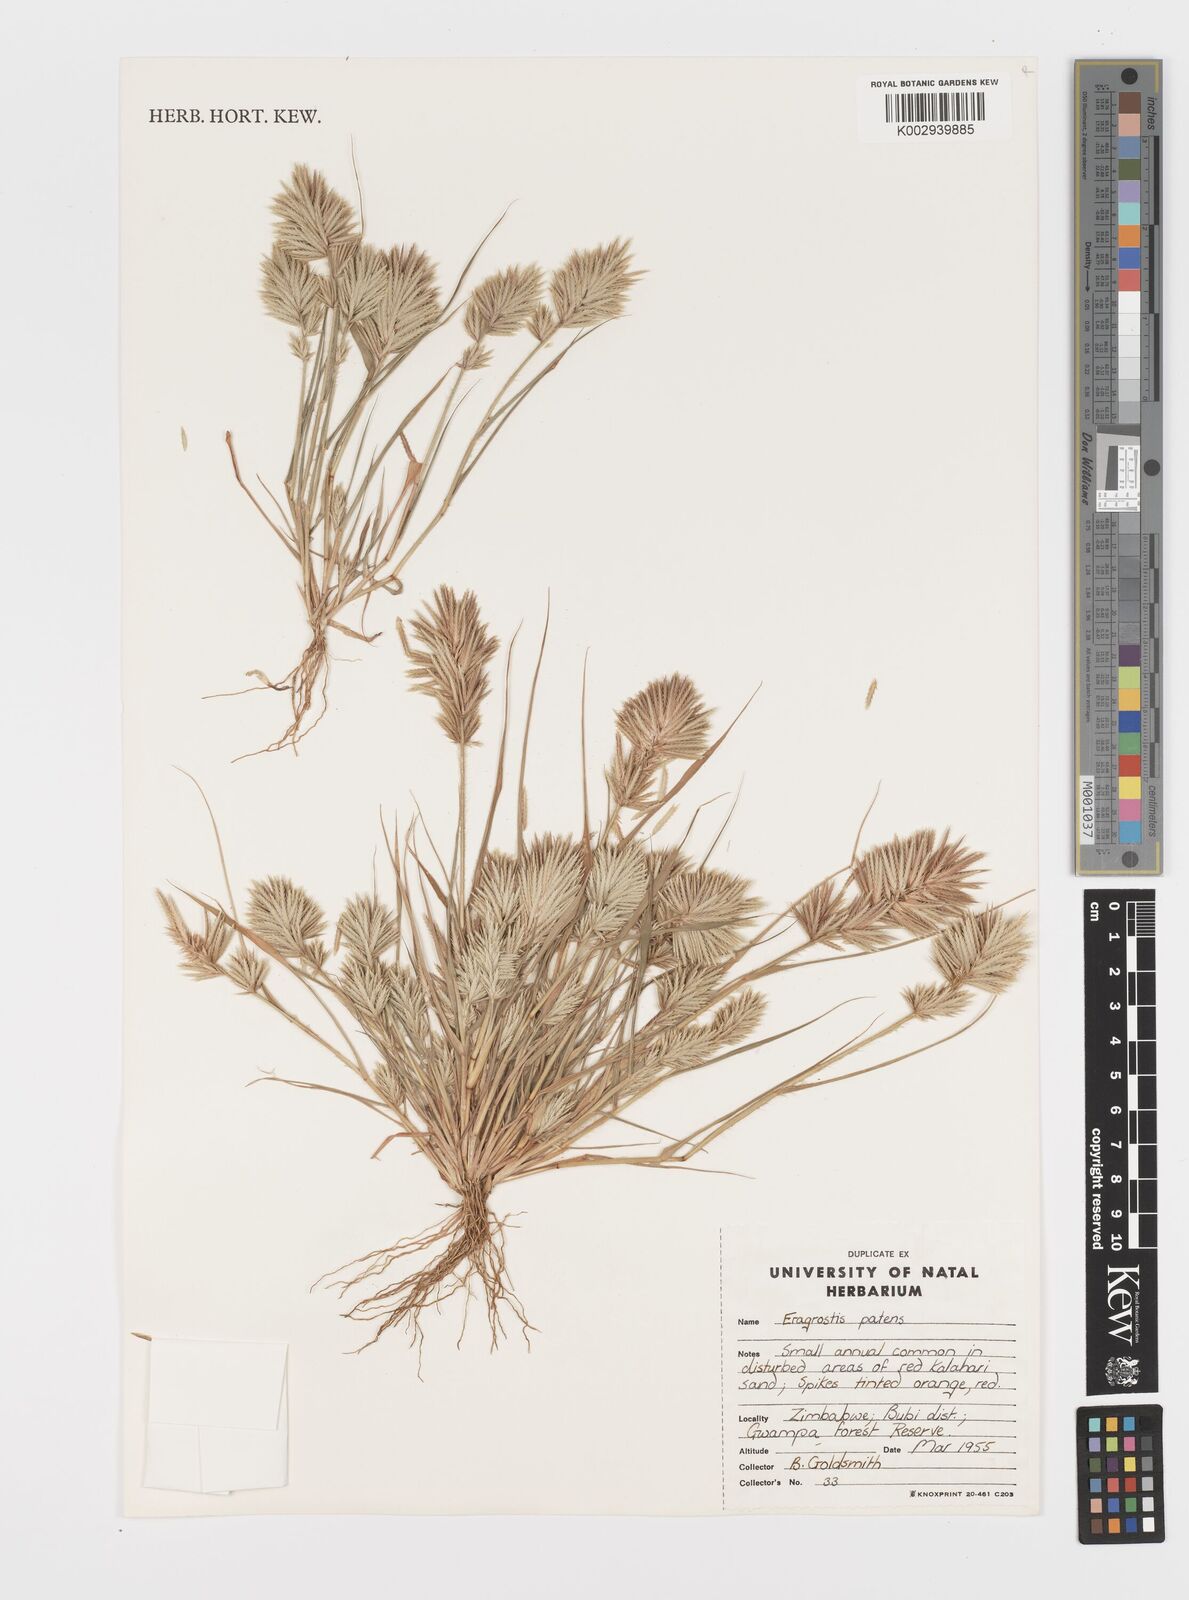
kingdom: Plantae
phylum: Tracheophyta
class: Liliopsida
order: Poales
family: Poaceae
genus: Eragrostis
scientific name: Eragrostis patens
